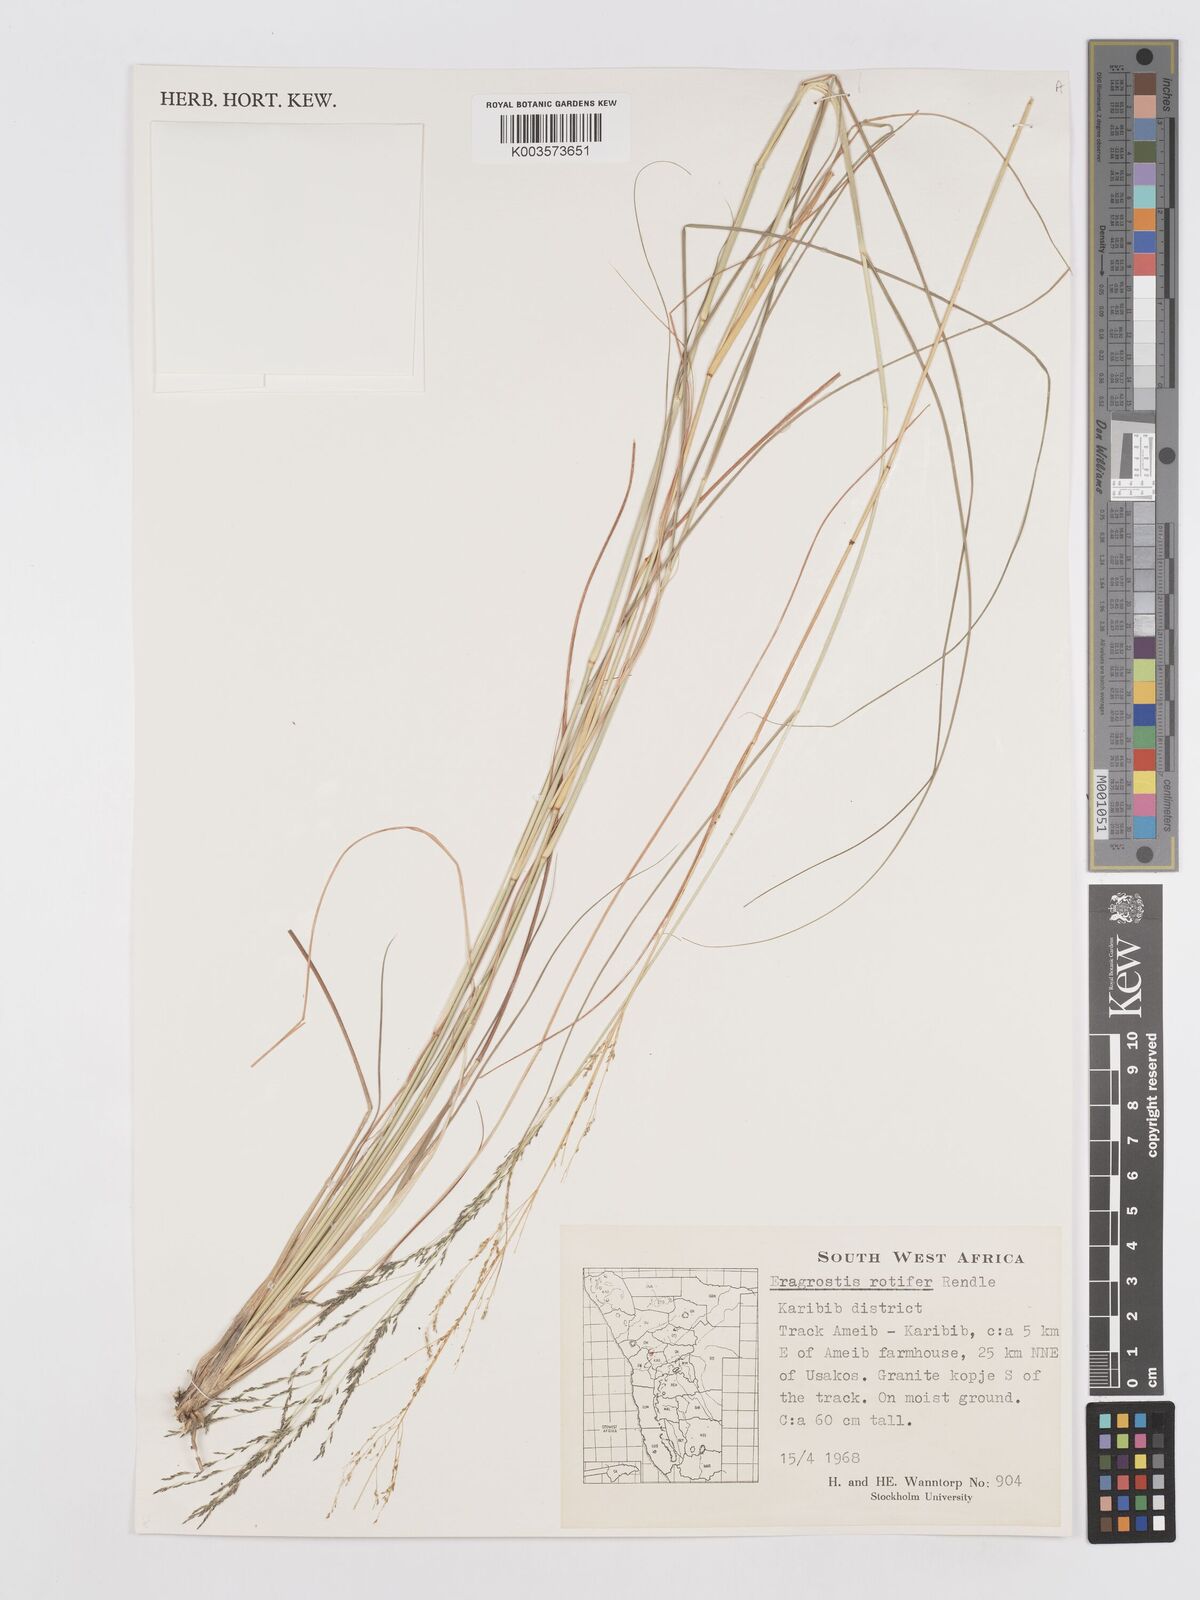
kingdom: Plantae
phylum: Tracheophyta
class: Liliopsida
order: Poales
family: Poaceae
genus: Eragrostis
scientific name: Eragrostis rotifer
